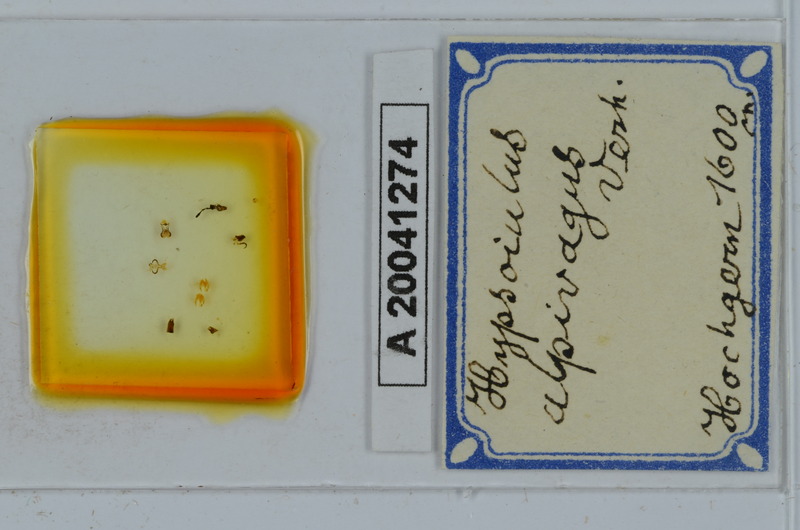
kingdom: Animalia
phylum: Arthropoda
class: Diplopoda
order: Julida
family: Julidae
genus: Hypsoiulus
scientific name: Hypsoiulus alpivagus
